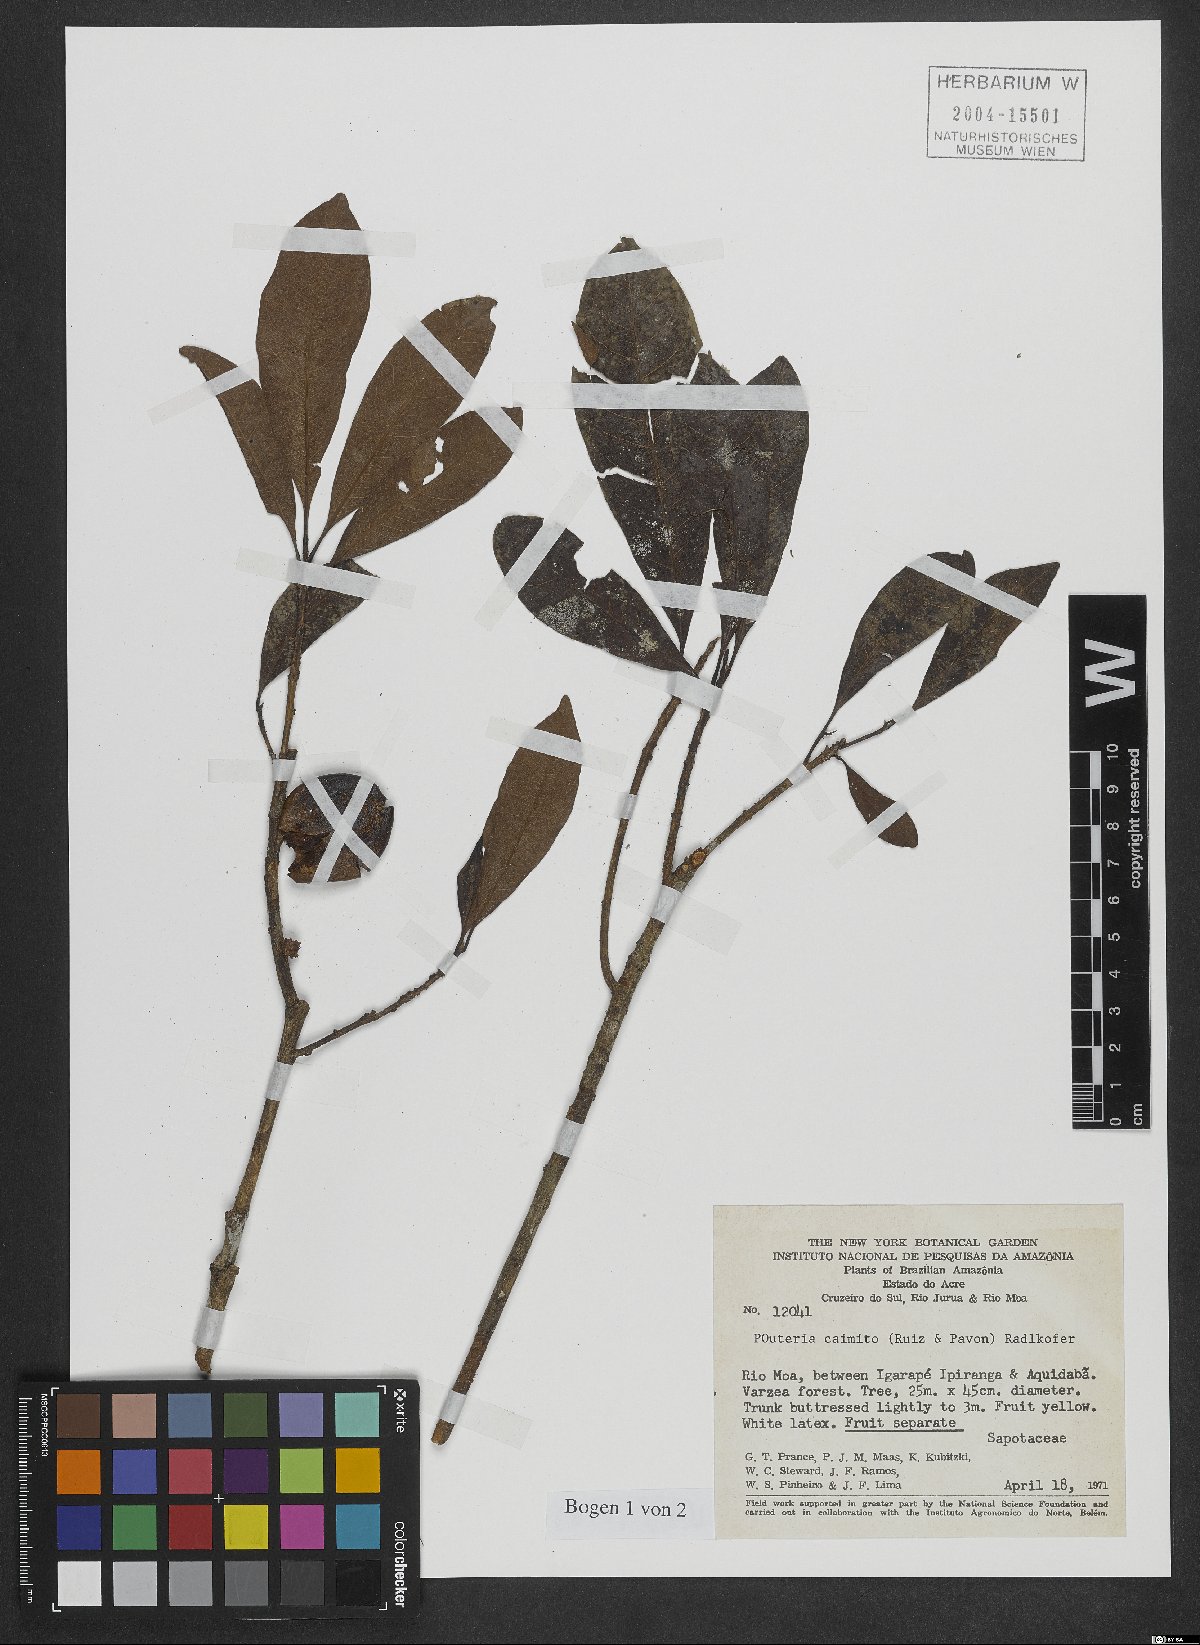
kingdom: Plantae
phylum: Tracheophyta
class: Magnoliopsida
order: Ericales
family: Sapotaceae
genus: Pouteria
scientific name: Pouteria caimito
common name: Caimito
